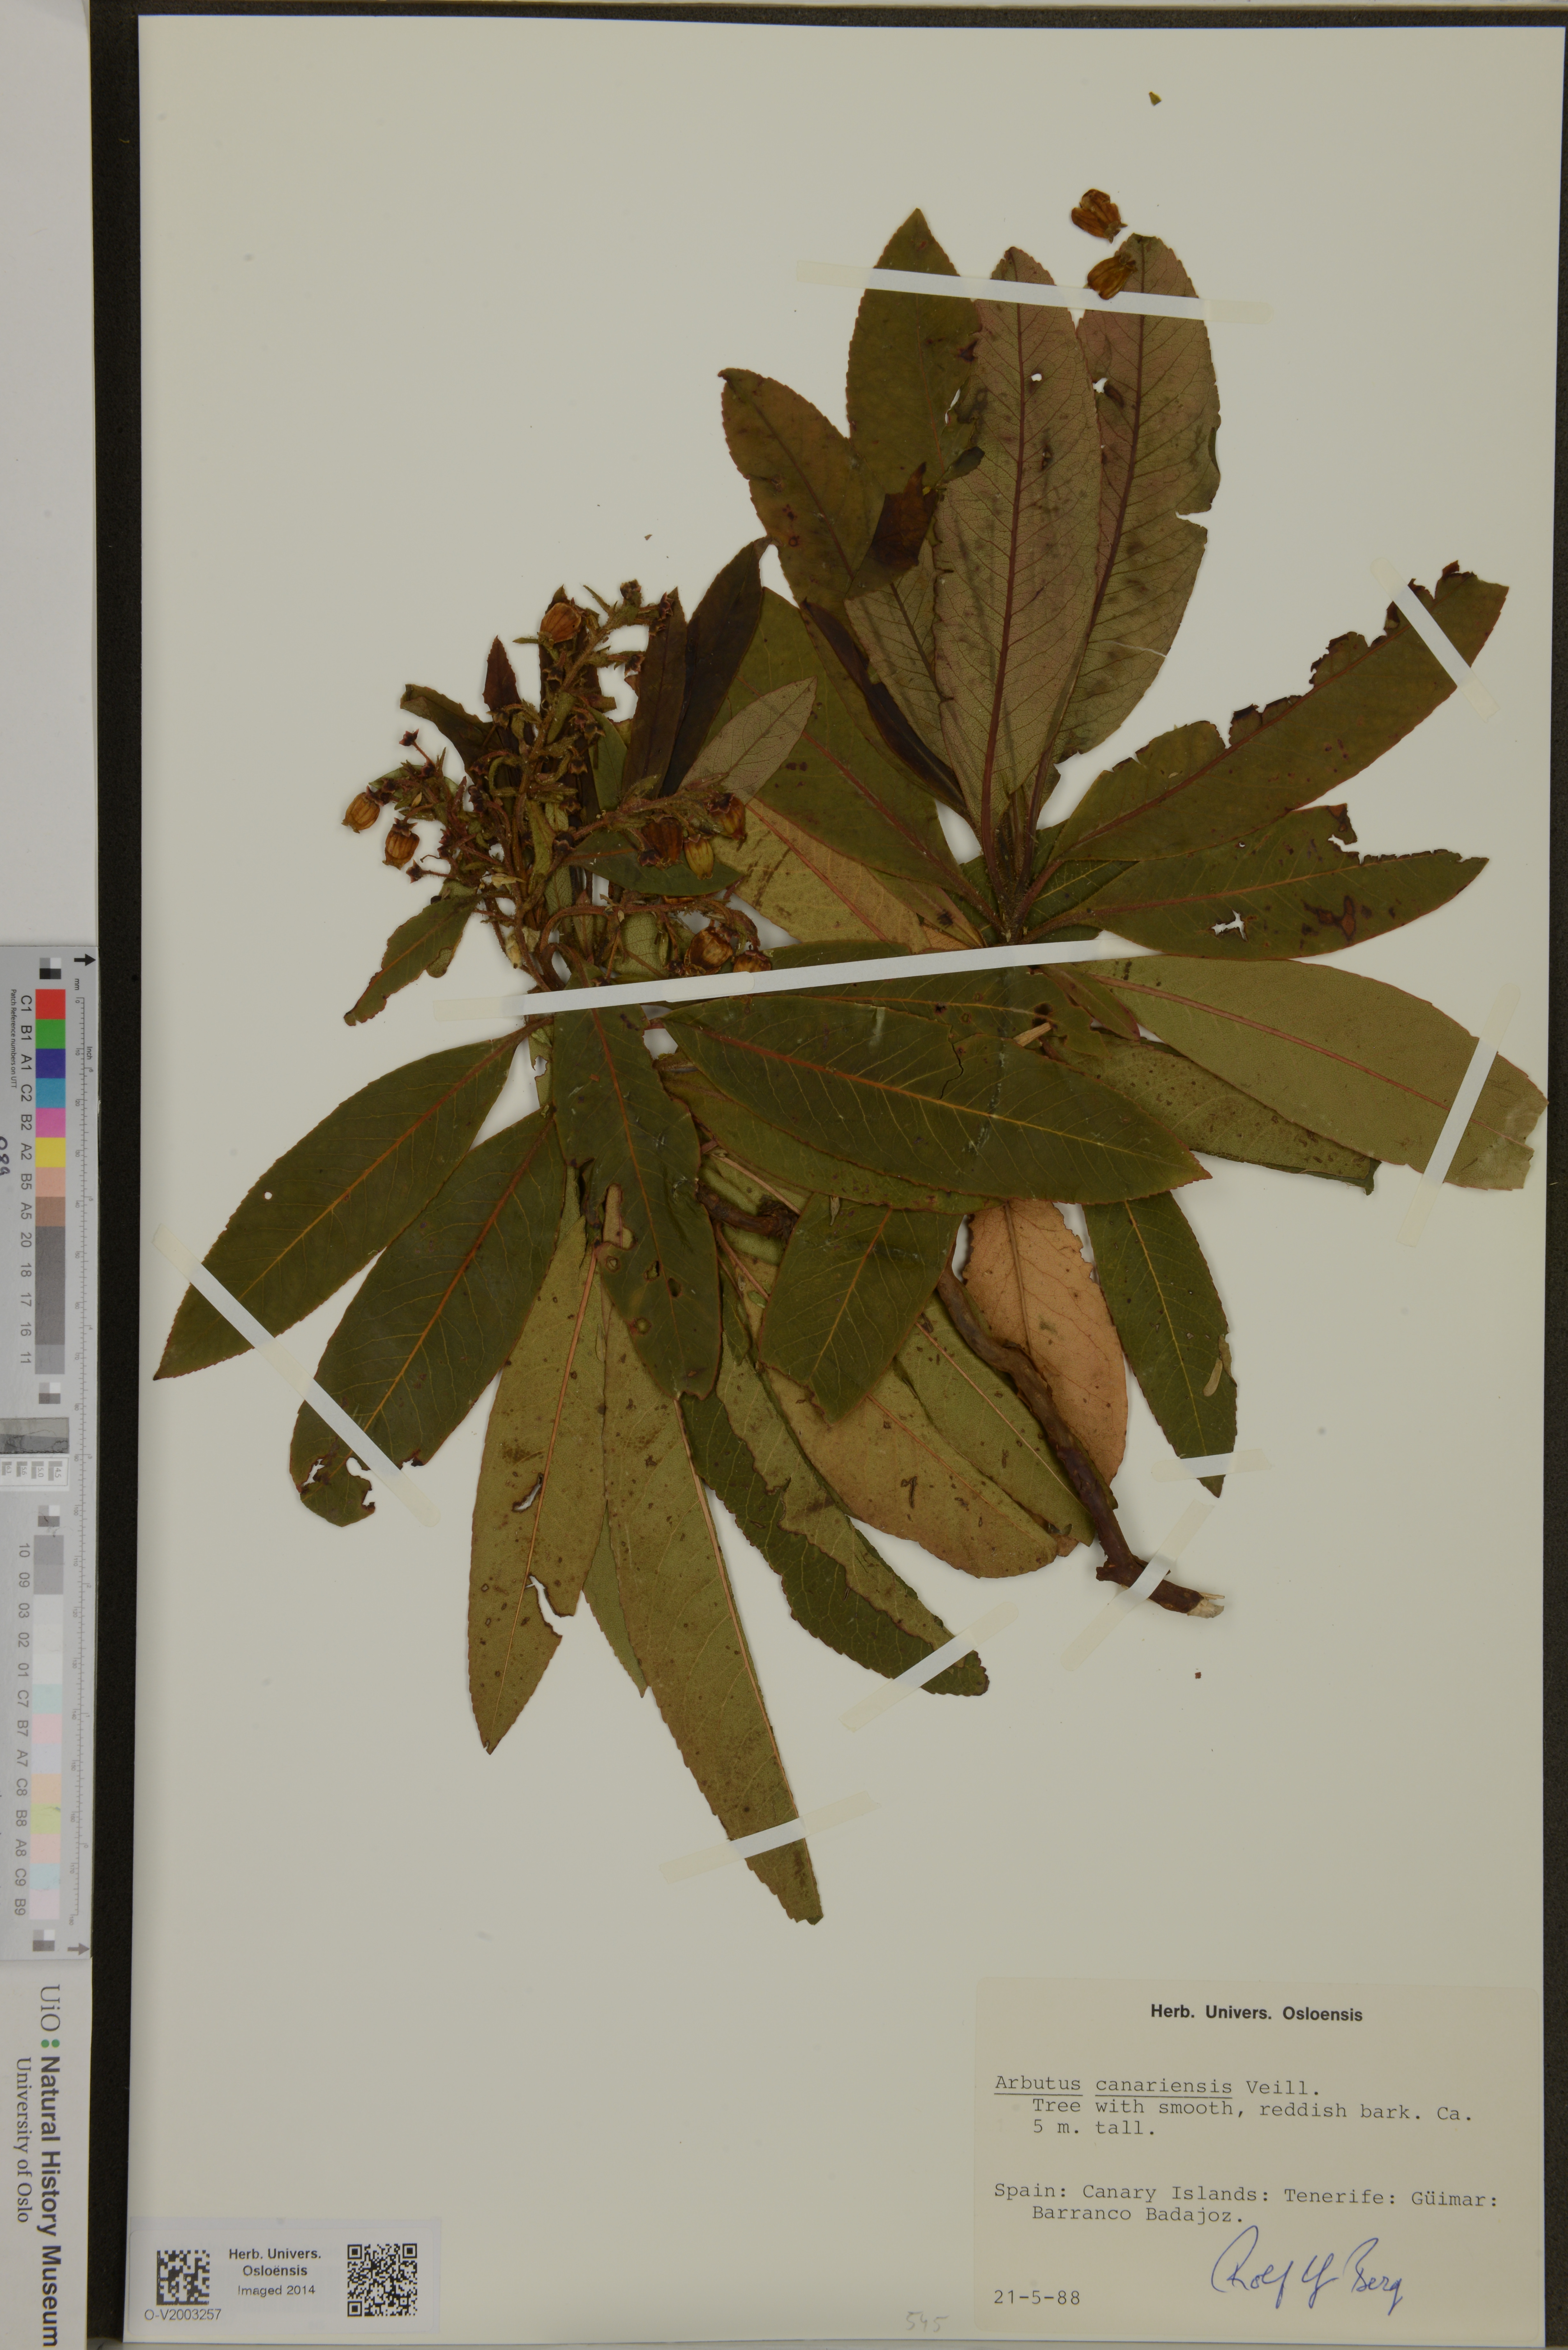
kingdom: Plantae
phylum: Tracheophyta
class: Magnoliopsida
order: Ericales
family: Ericaceae
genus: Arbutus
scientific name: Arbutus canariensis
